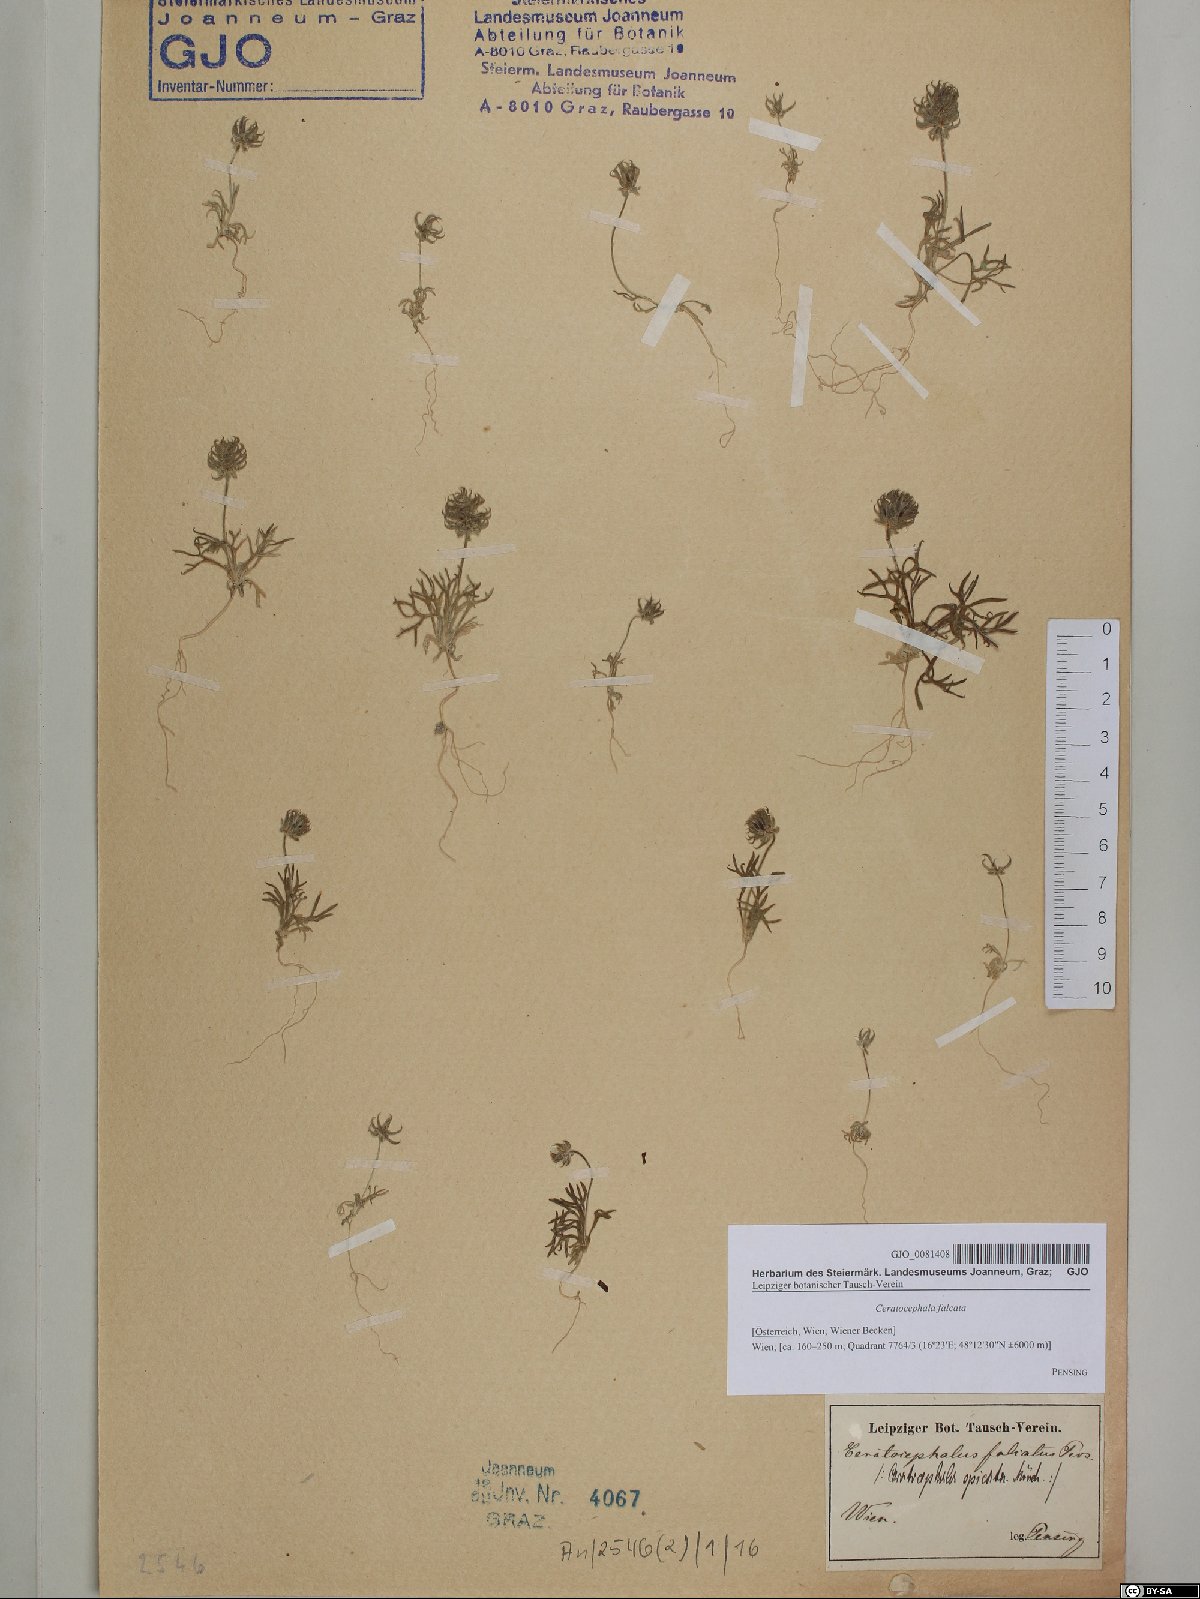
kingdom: Plantae
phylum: Tracheophyta
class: Magnoliopsida
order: Ranunculales
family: Ranunculaceae
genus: Ceratocephala
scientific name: Ceratocephala falcata
